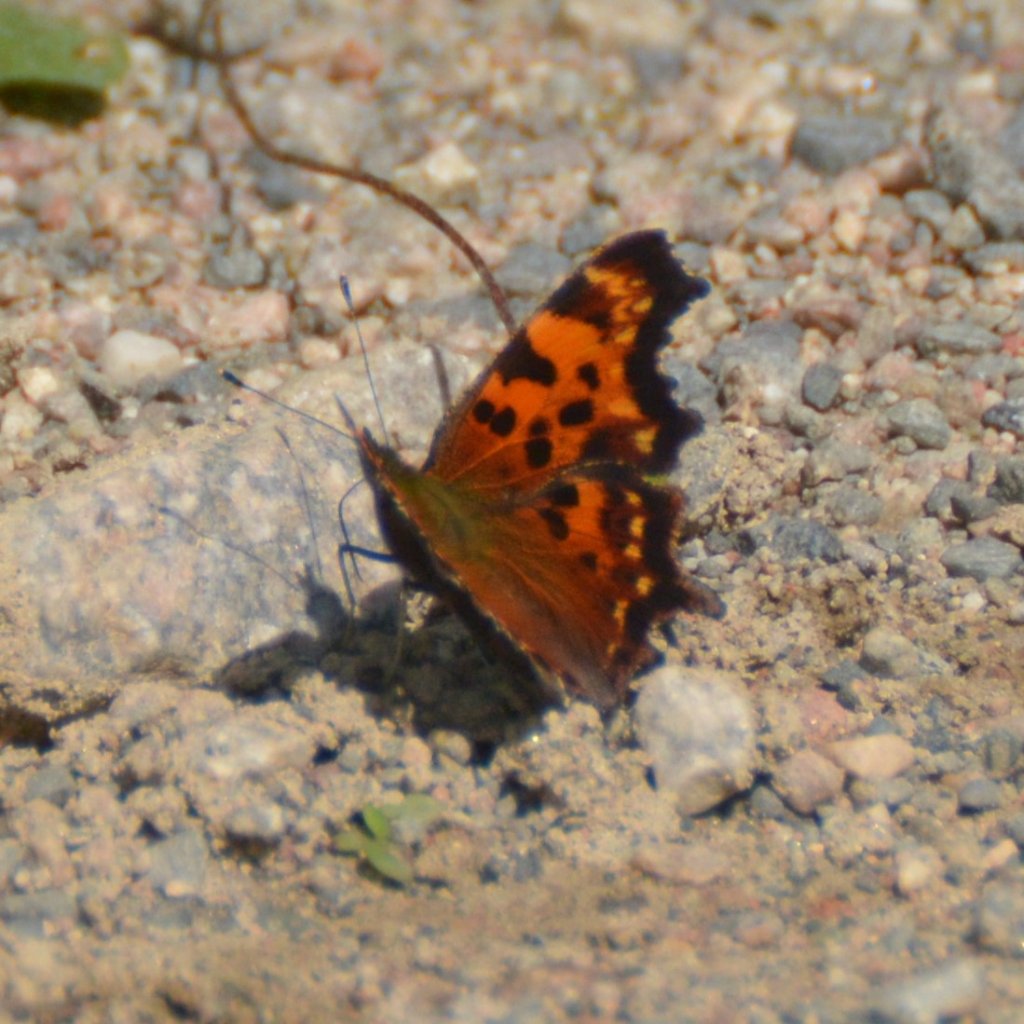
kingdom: Animalia
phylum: Arthropoda
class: Insecta
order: Lepidoptera
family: Nymphalidae
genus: Polygonia
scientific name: Polygonia faunus
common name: Green Comma
